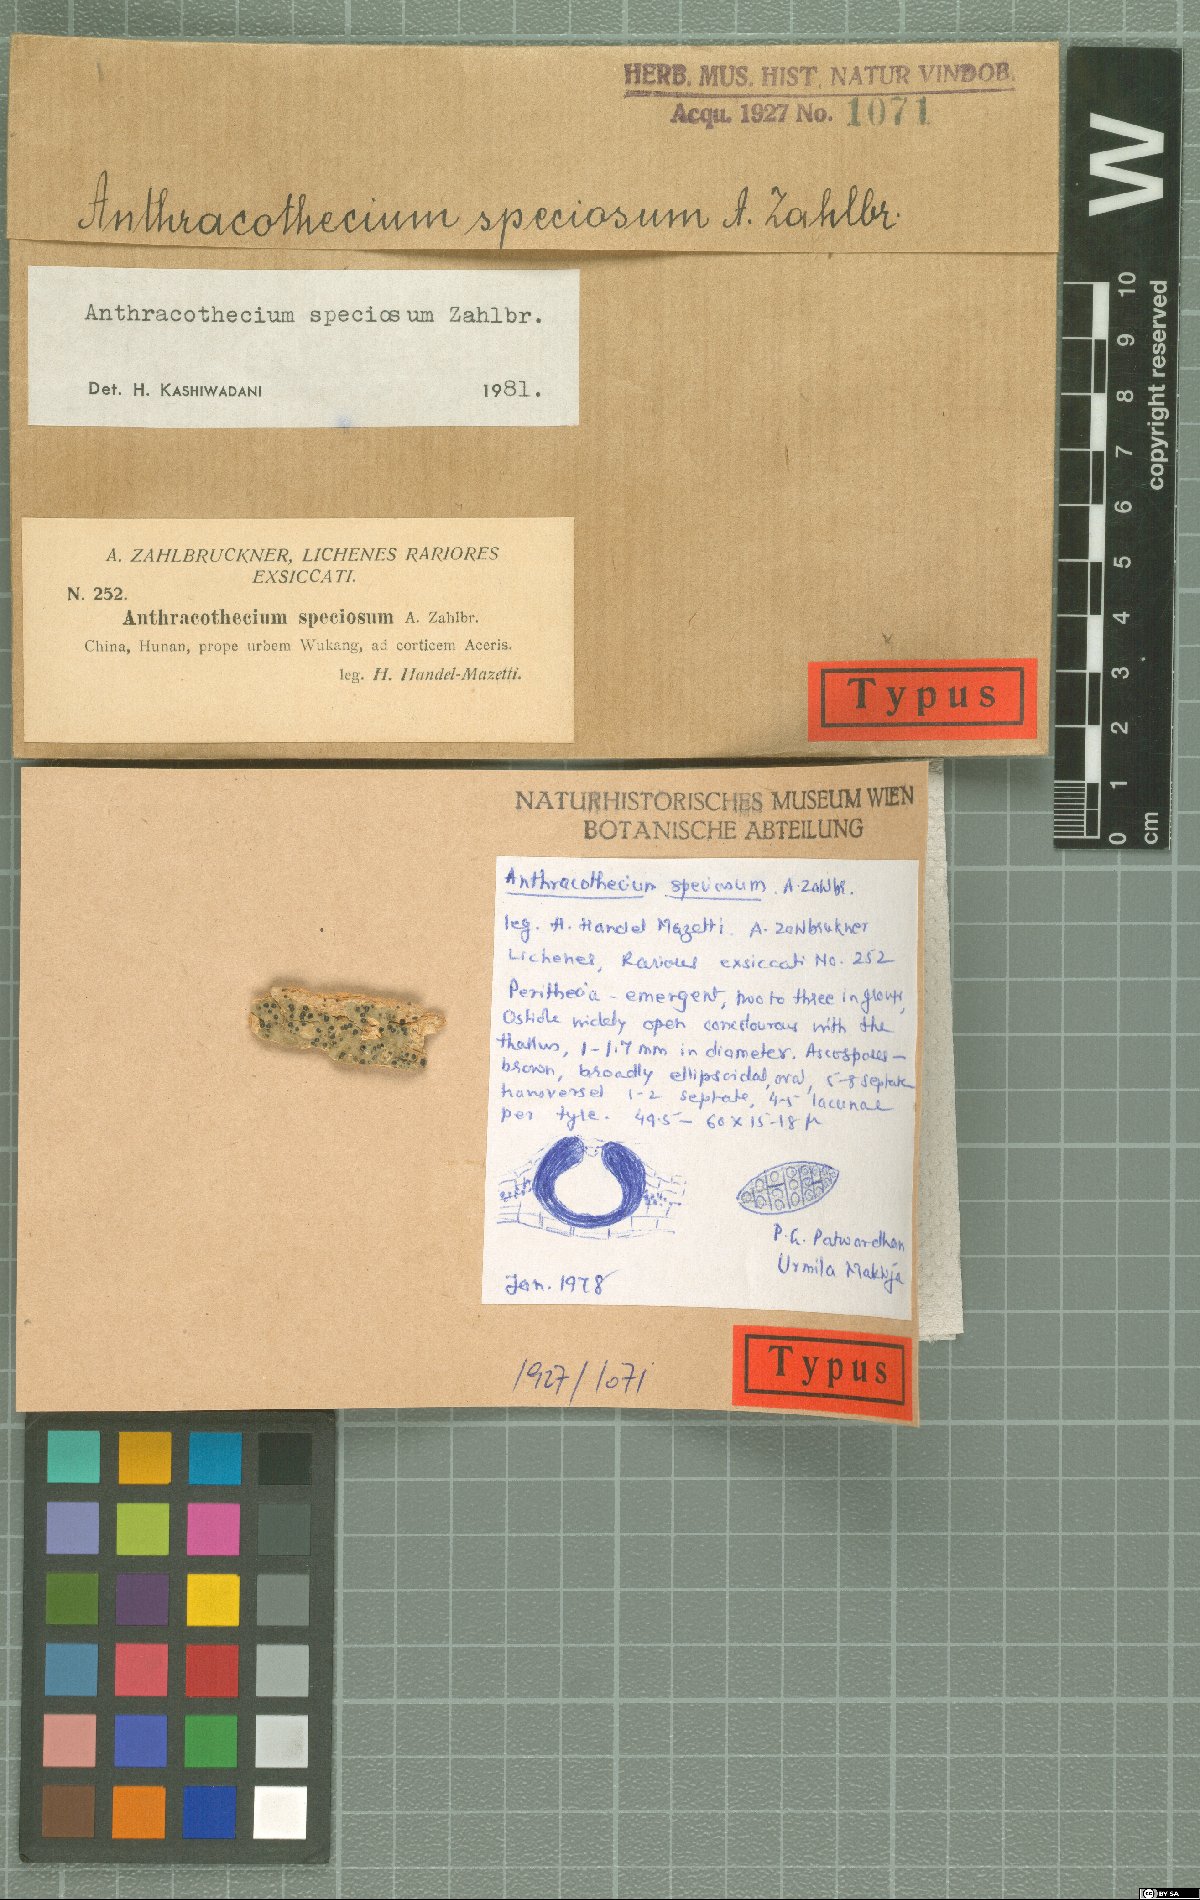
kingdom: Fungi
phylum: Ascomycota
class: Eurotiomycetes
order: Pyrenulales
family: Pyrenulaceae
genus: Anthracothecium
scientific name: Anthracothecium
